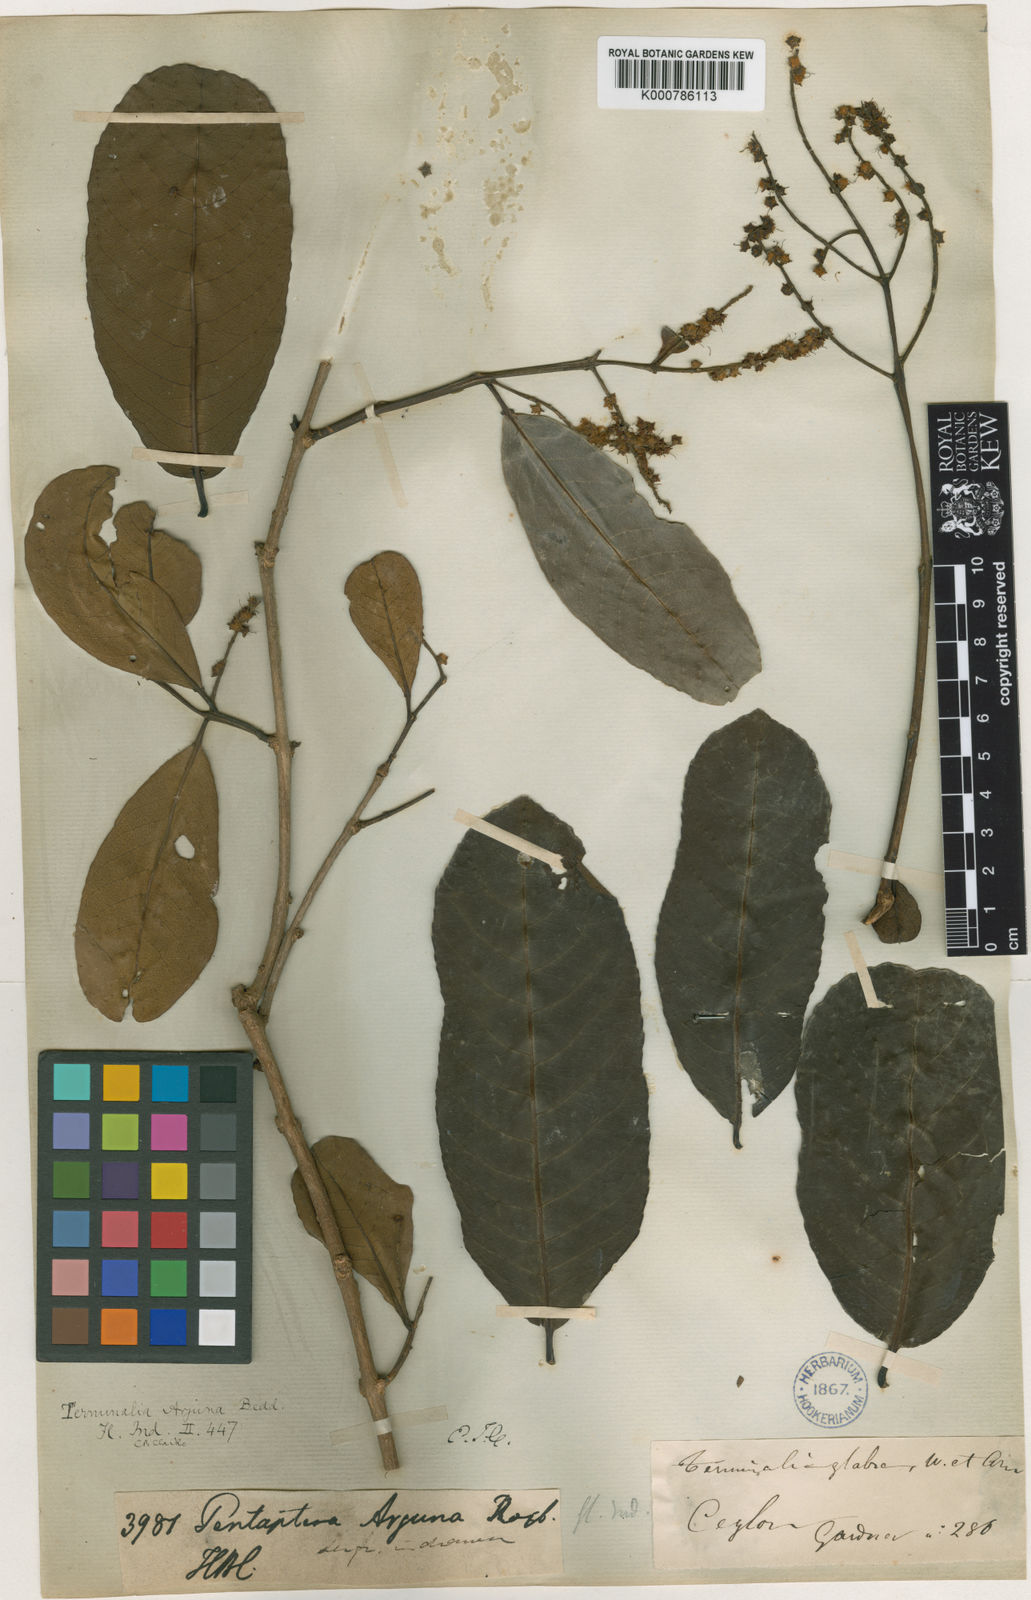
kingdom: Plantae
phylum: Tracheophyta
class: Magnoliopsida
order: Myrtales
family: Combretaceae
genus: Terminalia
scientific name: Terminalia arjuna
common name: Arjun
